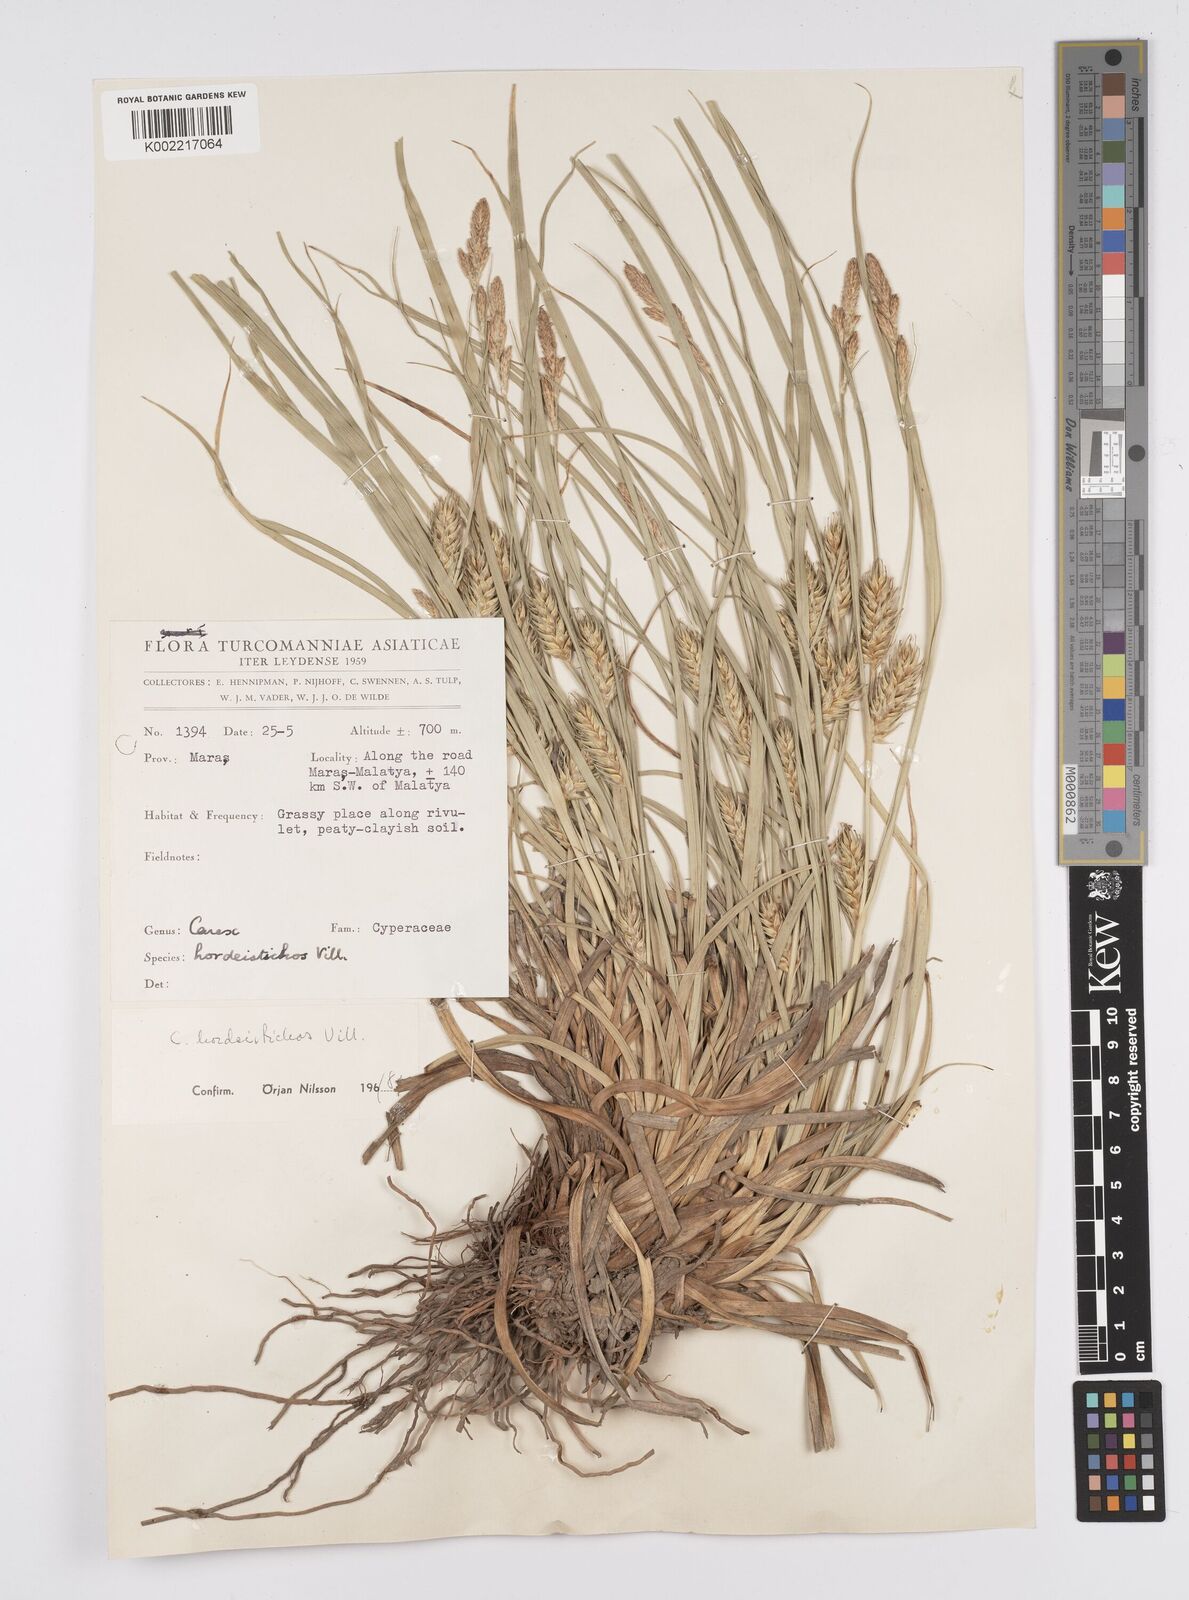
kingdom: Plantae
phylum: Tracheophyta
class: Liliopsida
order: Poales
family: Cyperaceae
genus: Carex
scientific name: Carex hordeistichos
